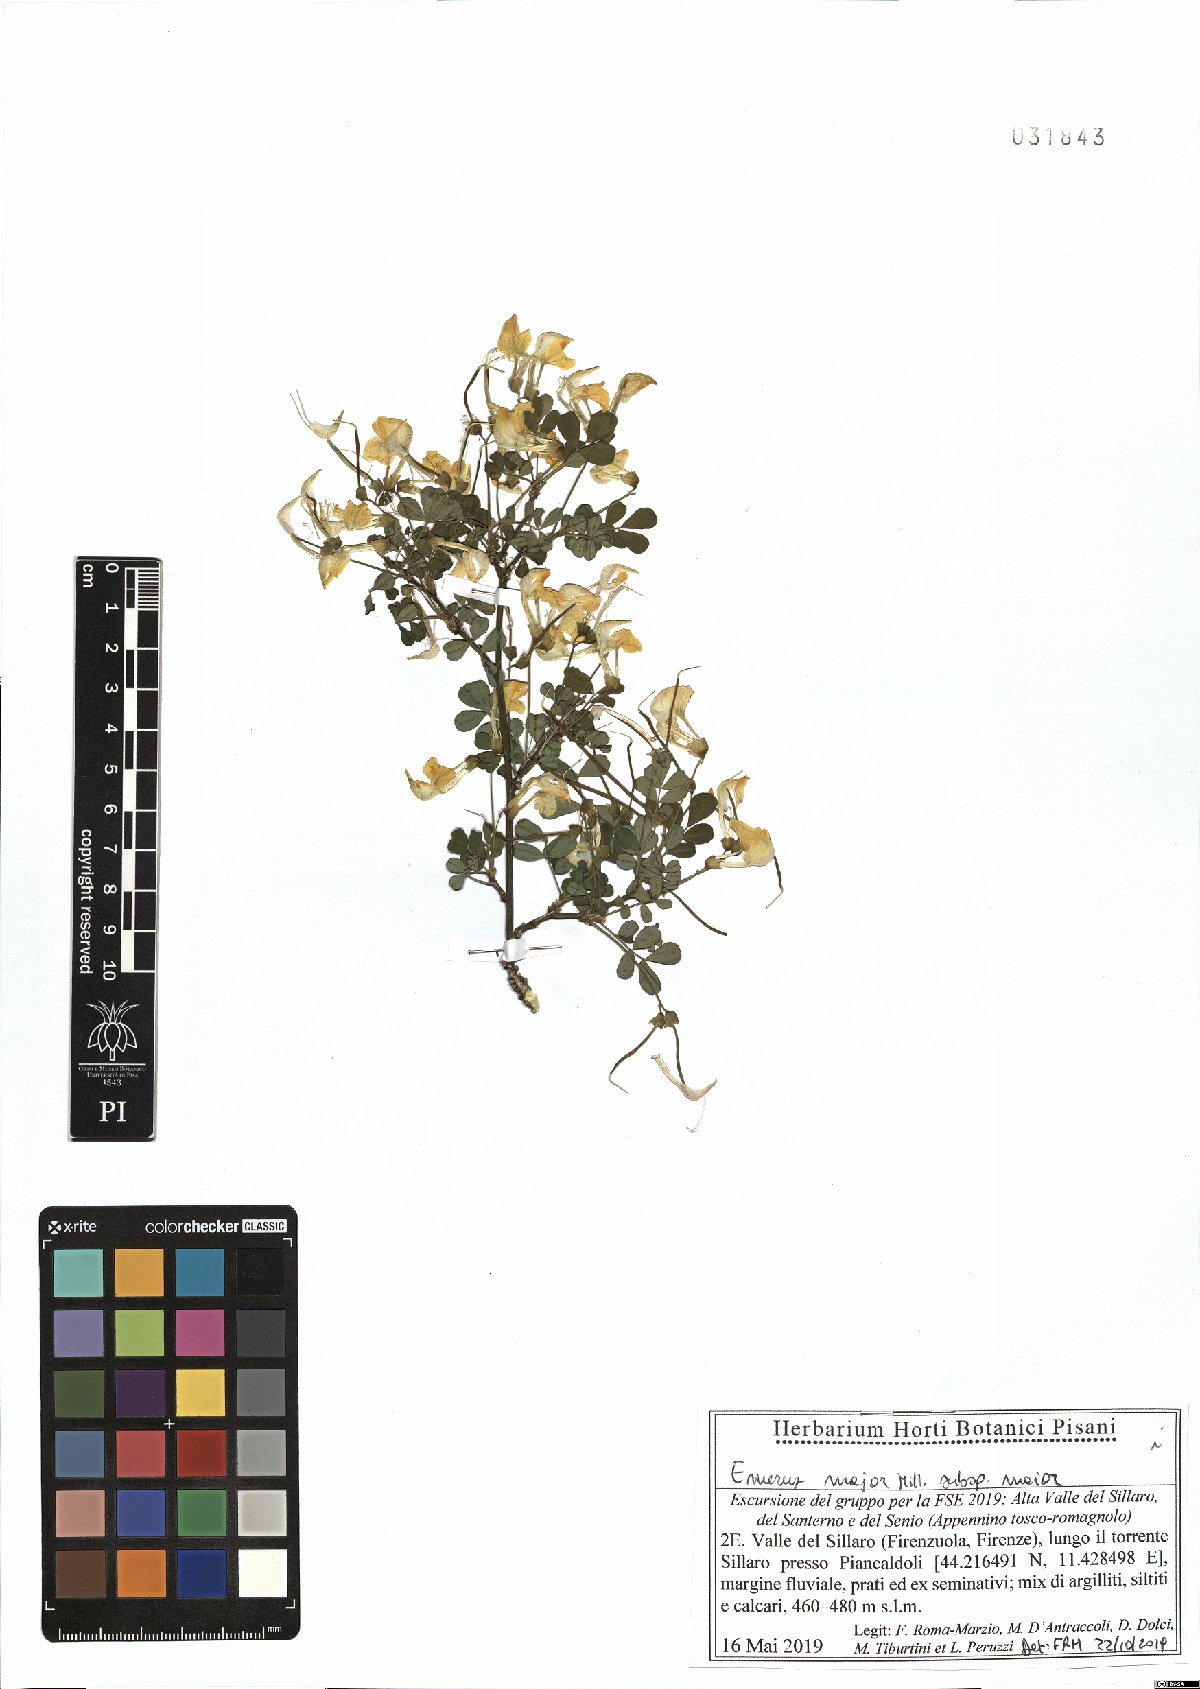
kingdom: Plantae
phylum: Tracheophyta
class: Magnoliopsida
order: Fabales
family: Fabaceae
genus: Hippocrepis
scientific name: Hippocrepis emerus
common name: Scorpion senna
